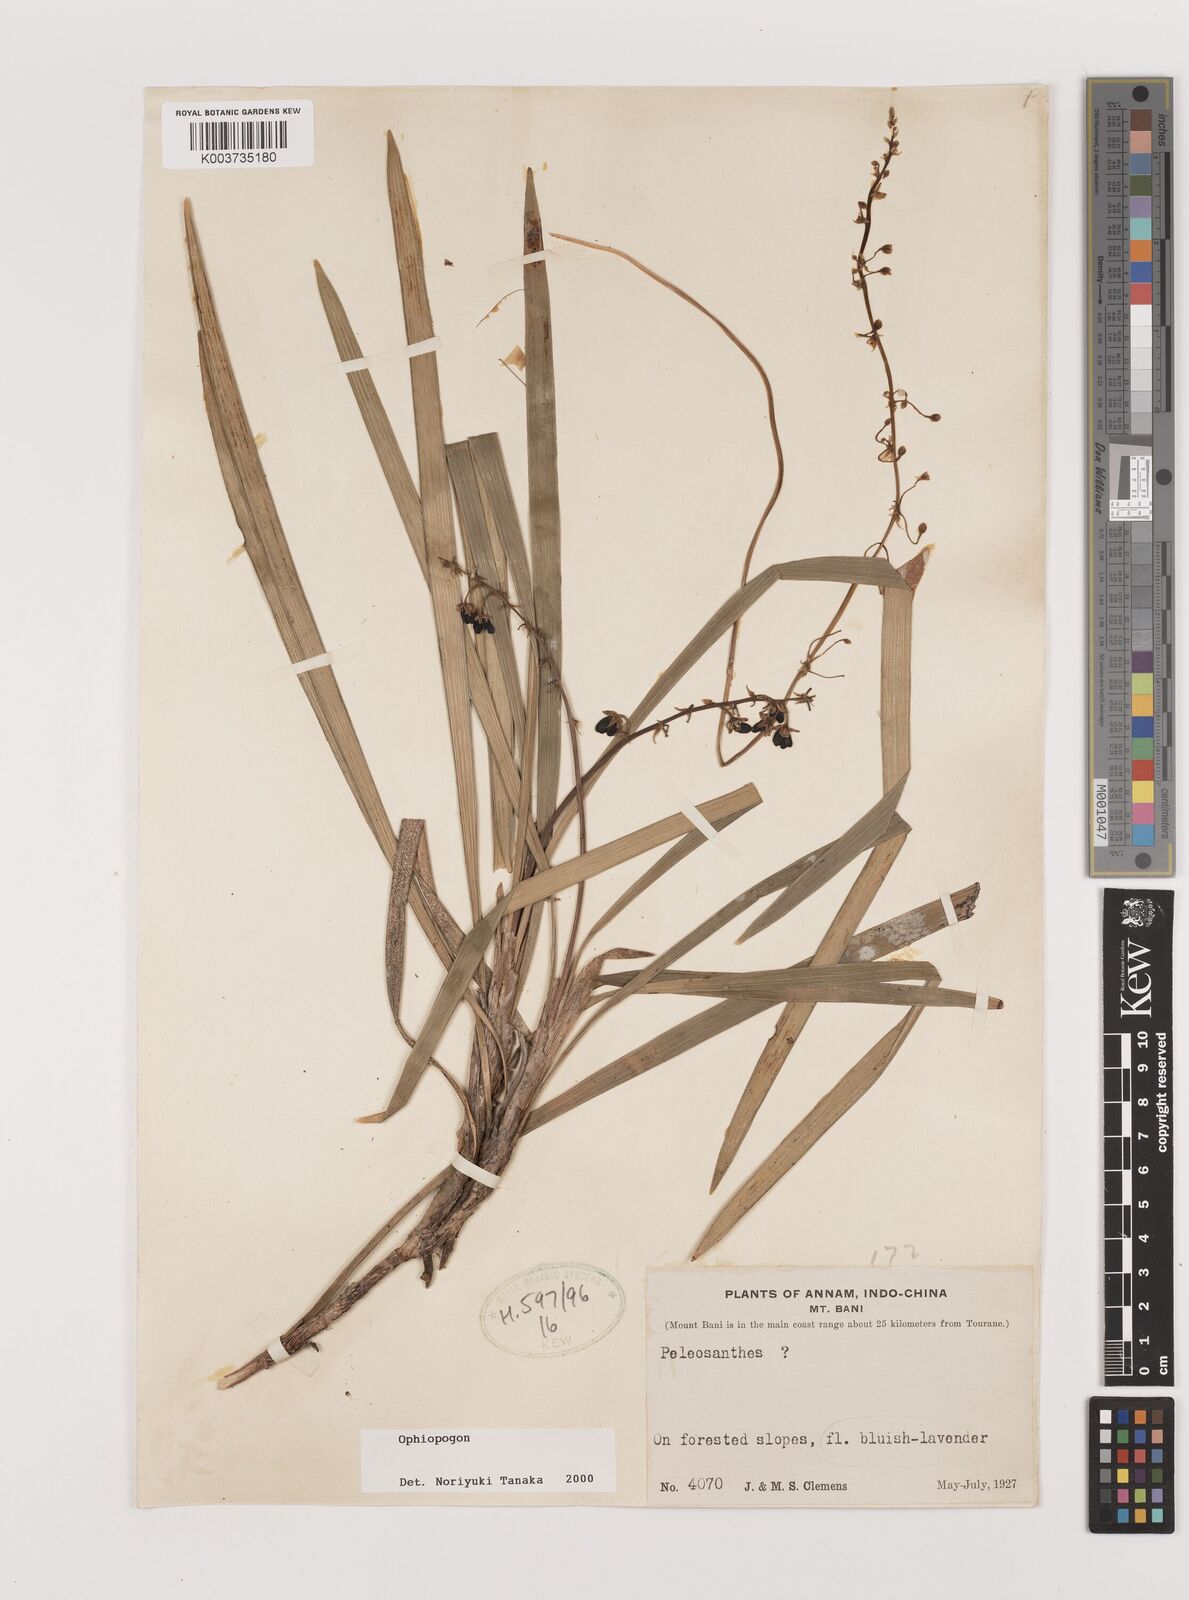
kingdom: Plantae
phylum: Tracheophyta
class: Liliopsida
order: Asparagales
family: Asparagaceae
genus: Ophiopogon
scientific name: Ophiopogon
